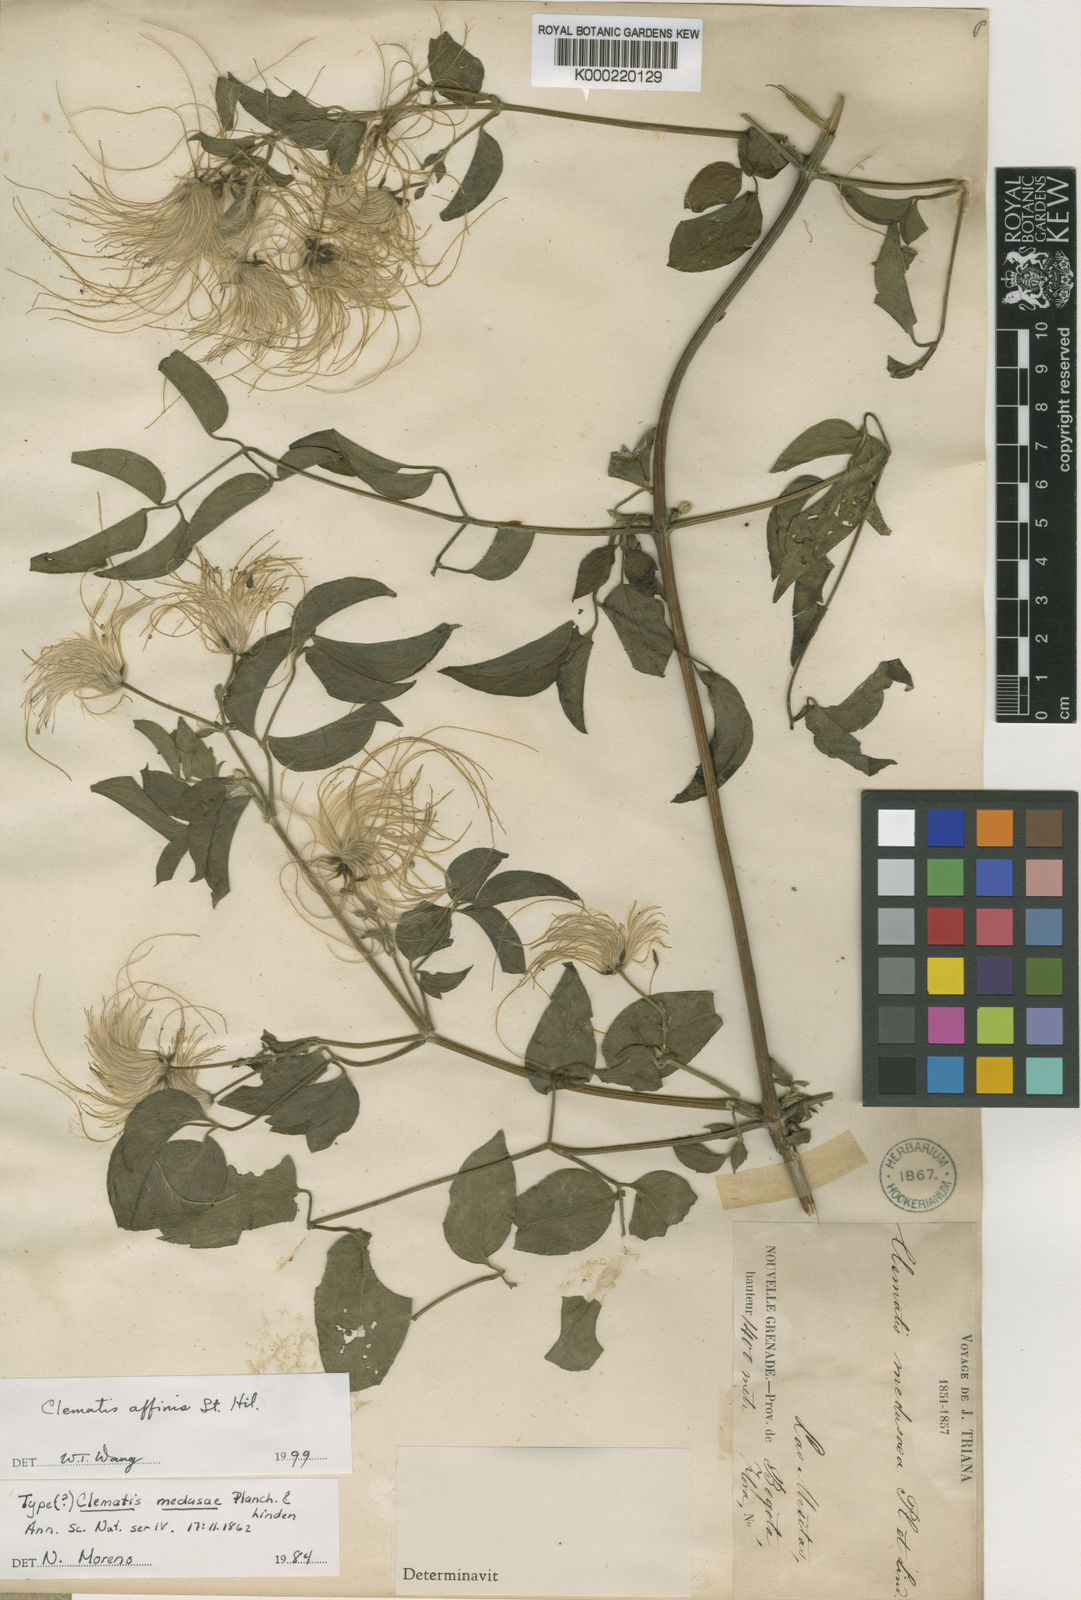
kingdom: Plantae
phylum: Tracheophyta
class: Magnoliopsida
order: Ranunculales
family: Ranunculaceae
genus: Clematis
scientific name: Clematis guadeloupae
